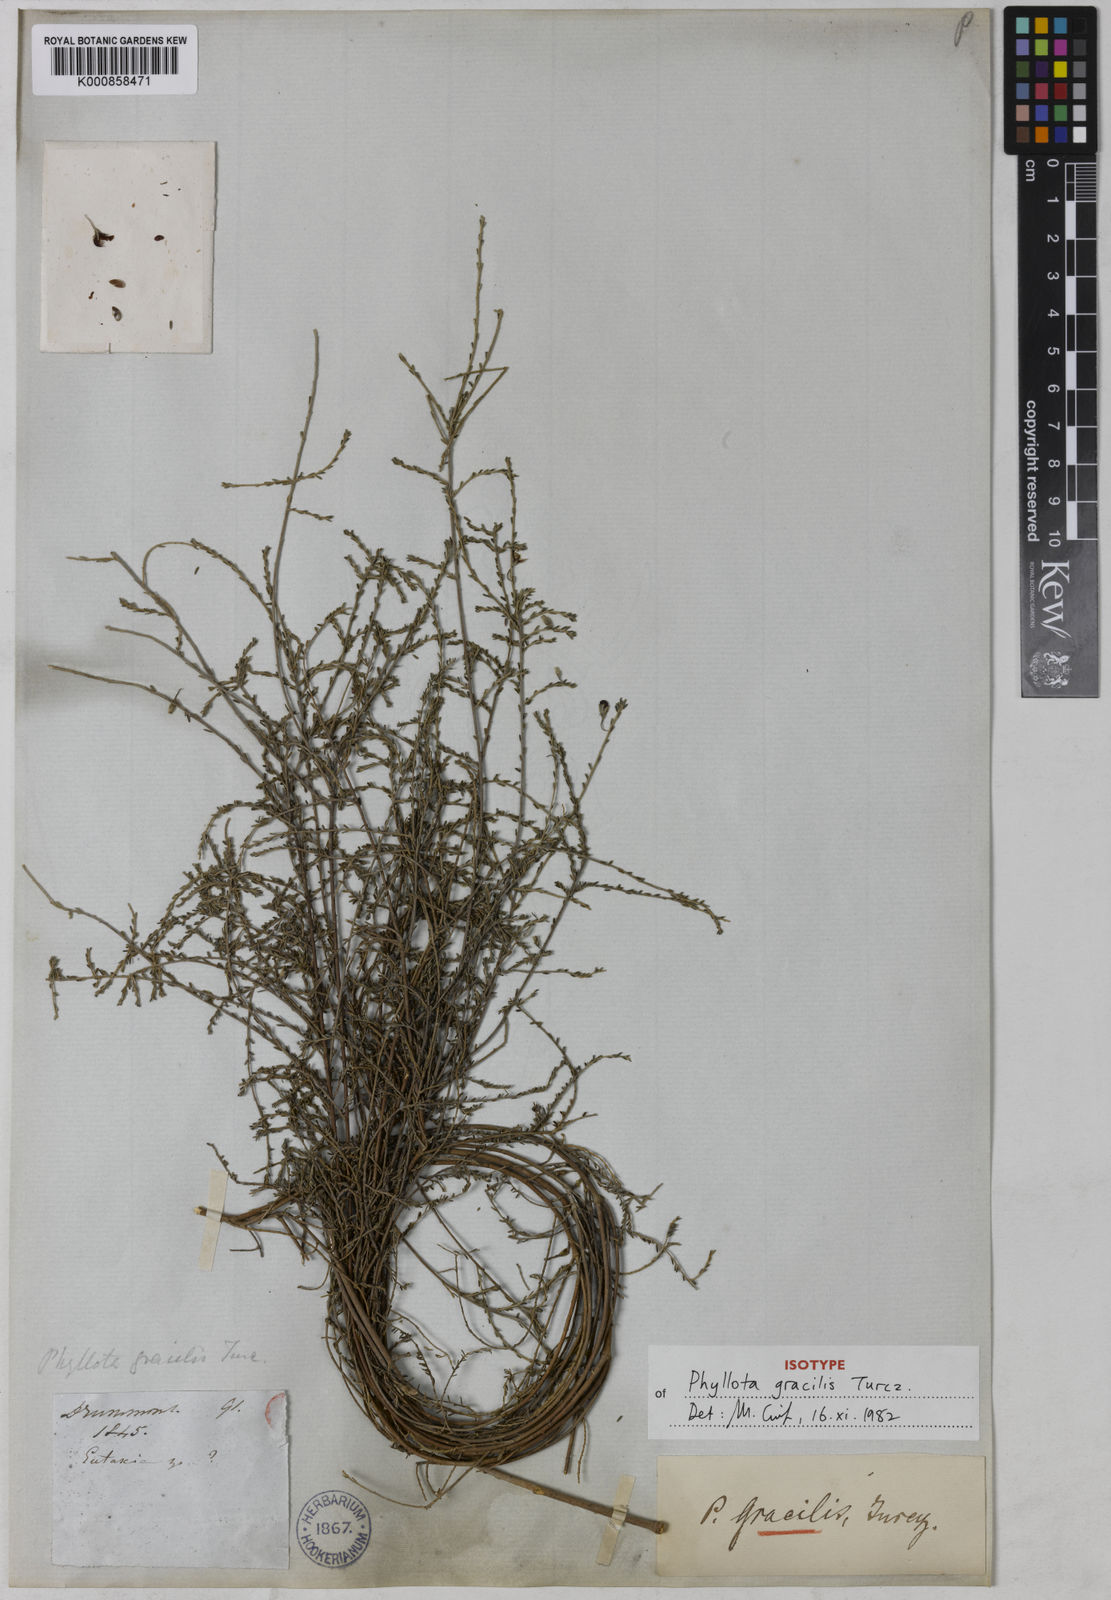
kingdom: Plantae
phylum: Tracheophyta
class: Magnoliopsida
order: Fabales
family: Fabaceae
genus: Phyllota
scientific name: Phyllota gracilis
